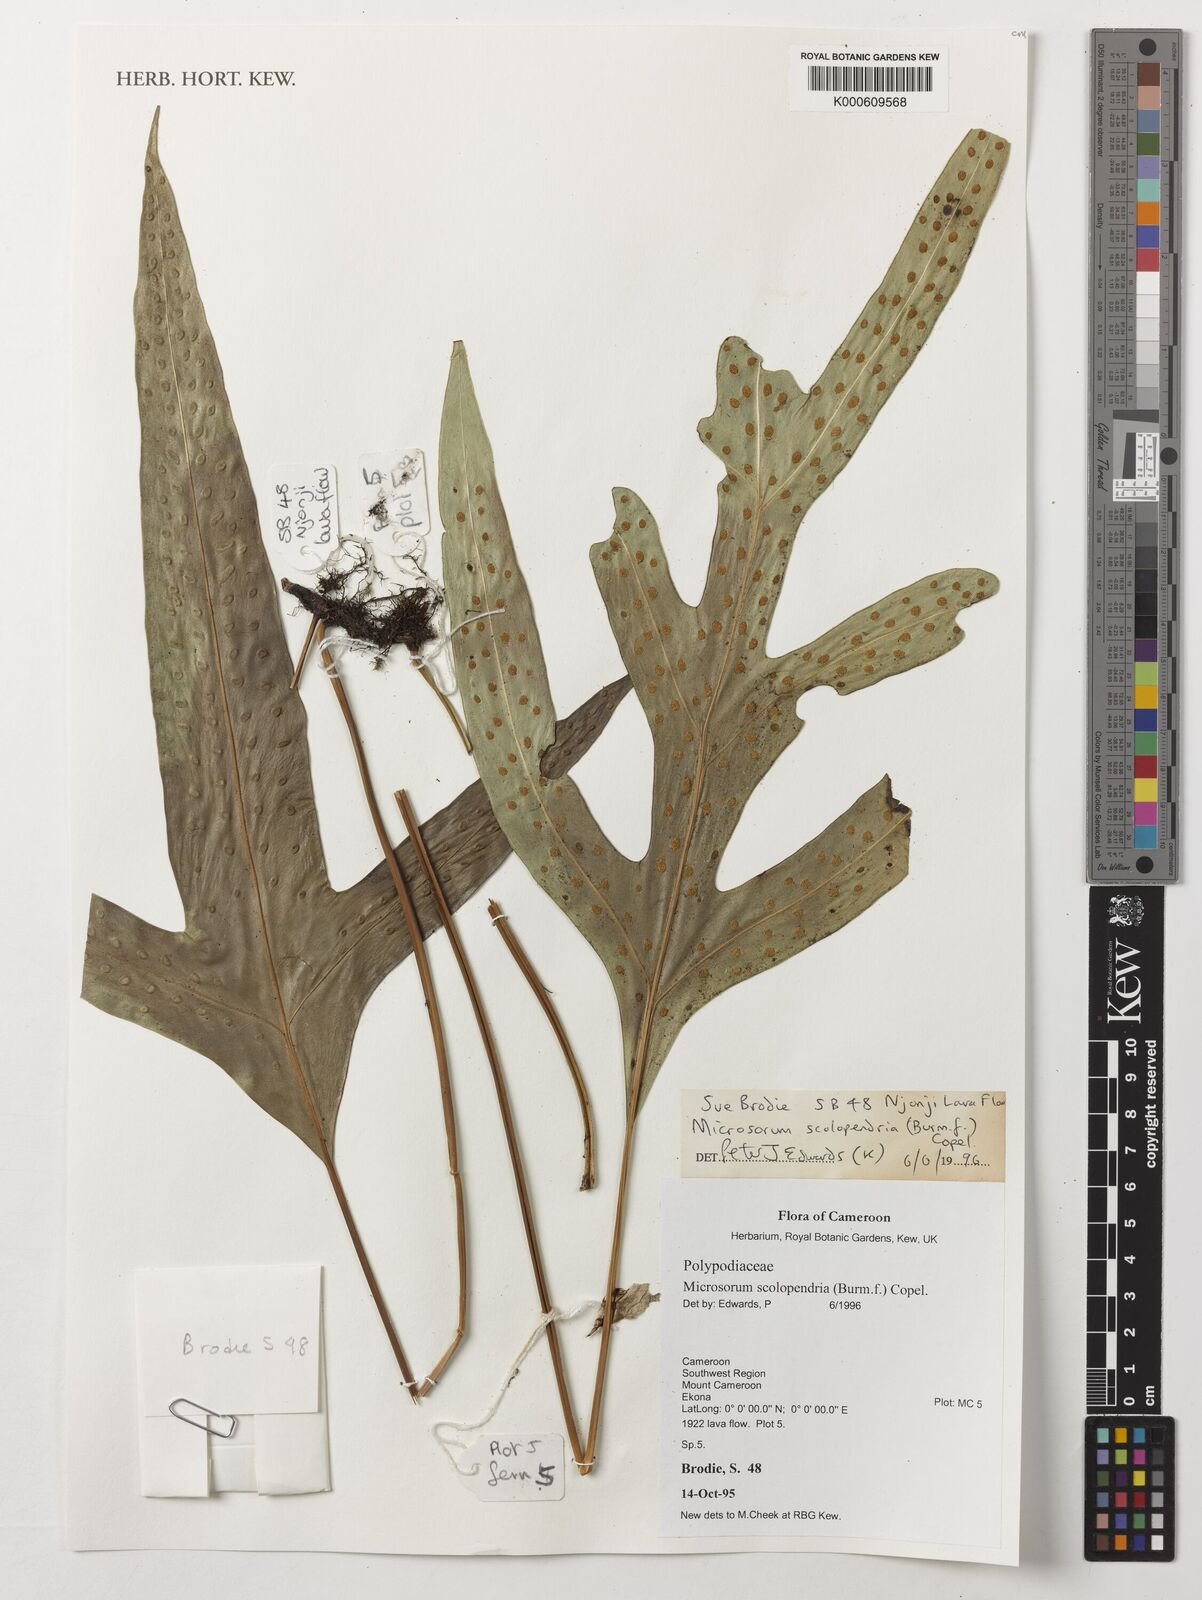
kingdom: Plantae
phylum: Tracheophyta
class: Polypodiopsida
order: Polypodiales
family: Polypodiaceae
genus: Microsorum
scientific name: Microsorum scolopendria
